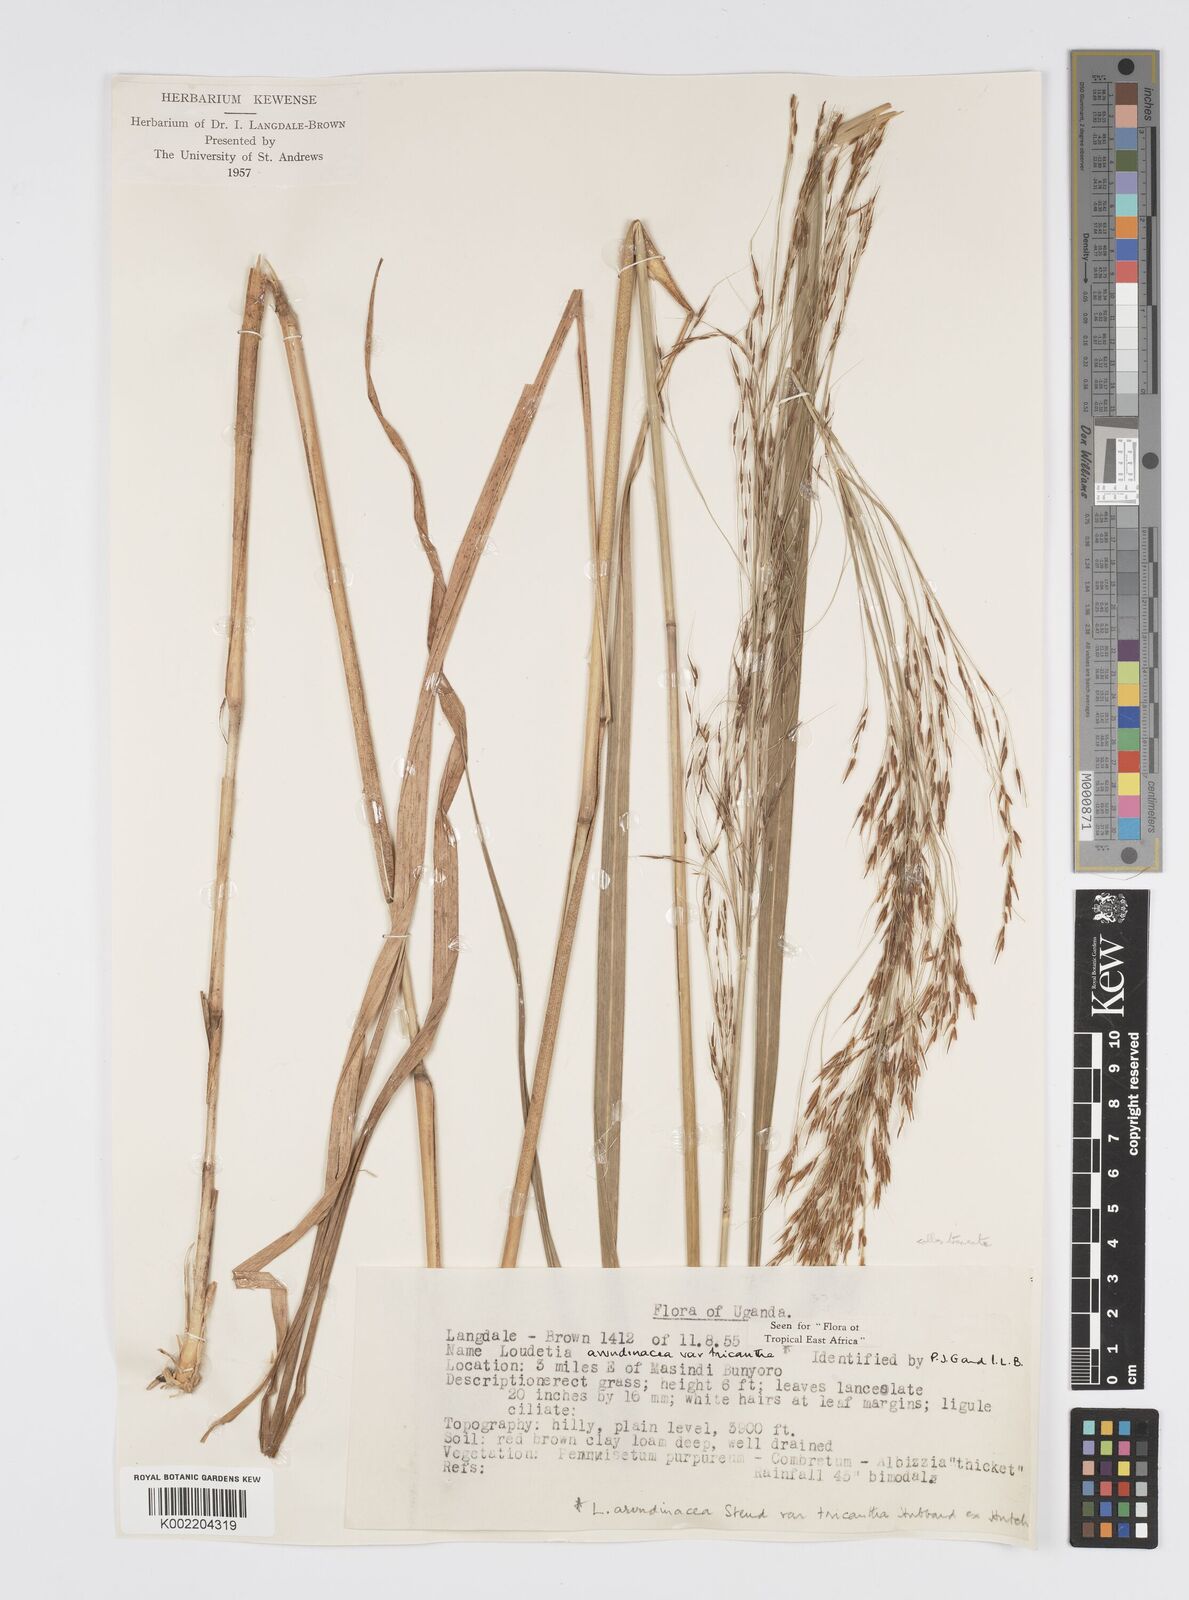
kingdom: Plantae
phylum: Tracheophyta
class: Liliopsida
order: Poales
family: Poaceae
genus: Loudetia
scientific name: Loudetia arundinacea
